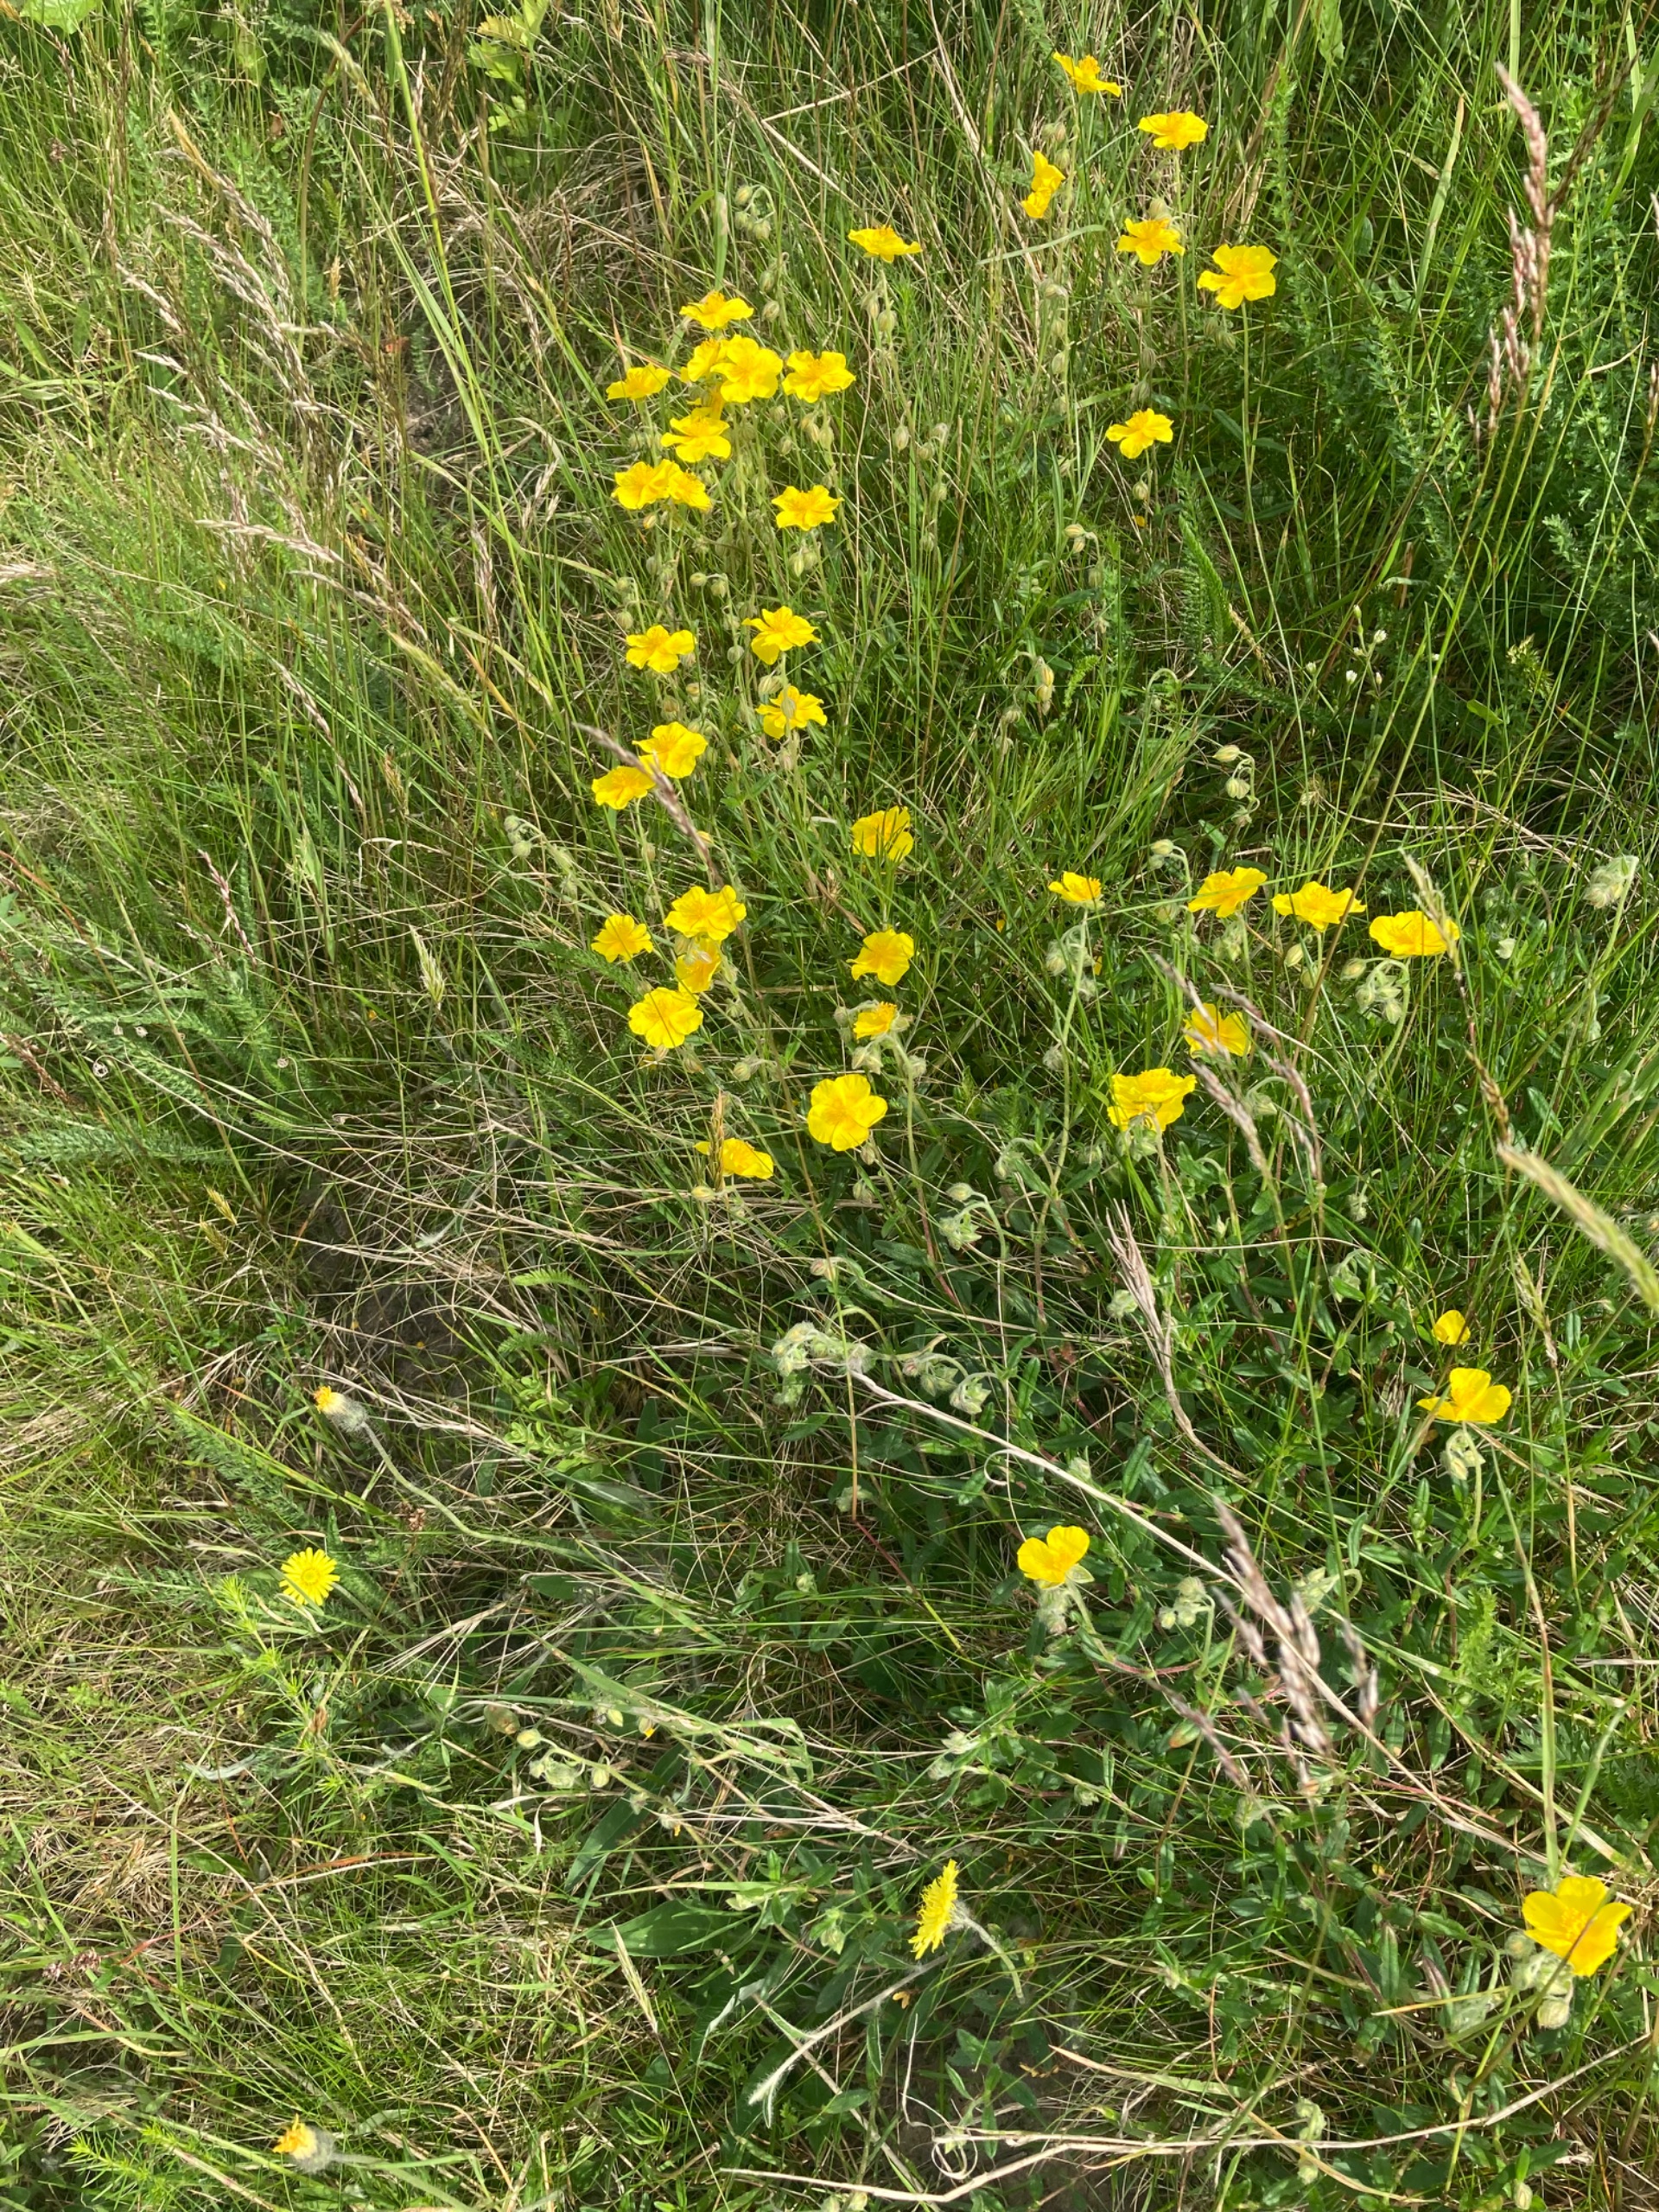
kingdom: Plantae
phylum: Tracheophyta
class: Magnoliopsida
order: Malvales
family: Cistaceae
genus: Helianthemum
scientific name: Helianthemum nummularium
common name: Soløje
